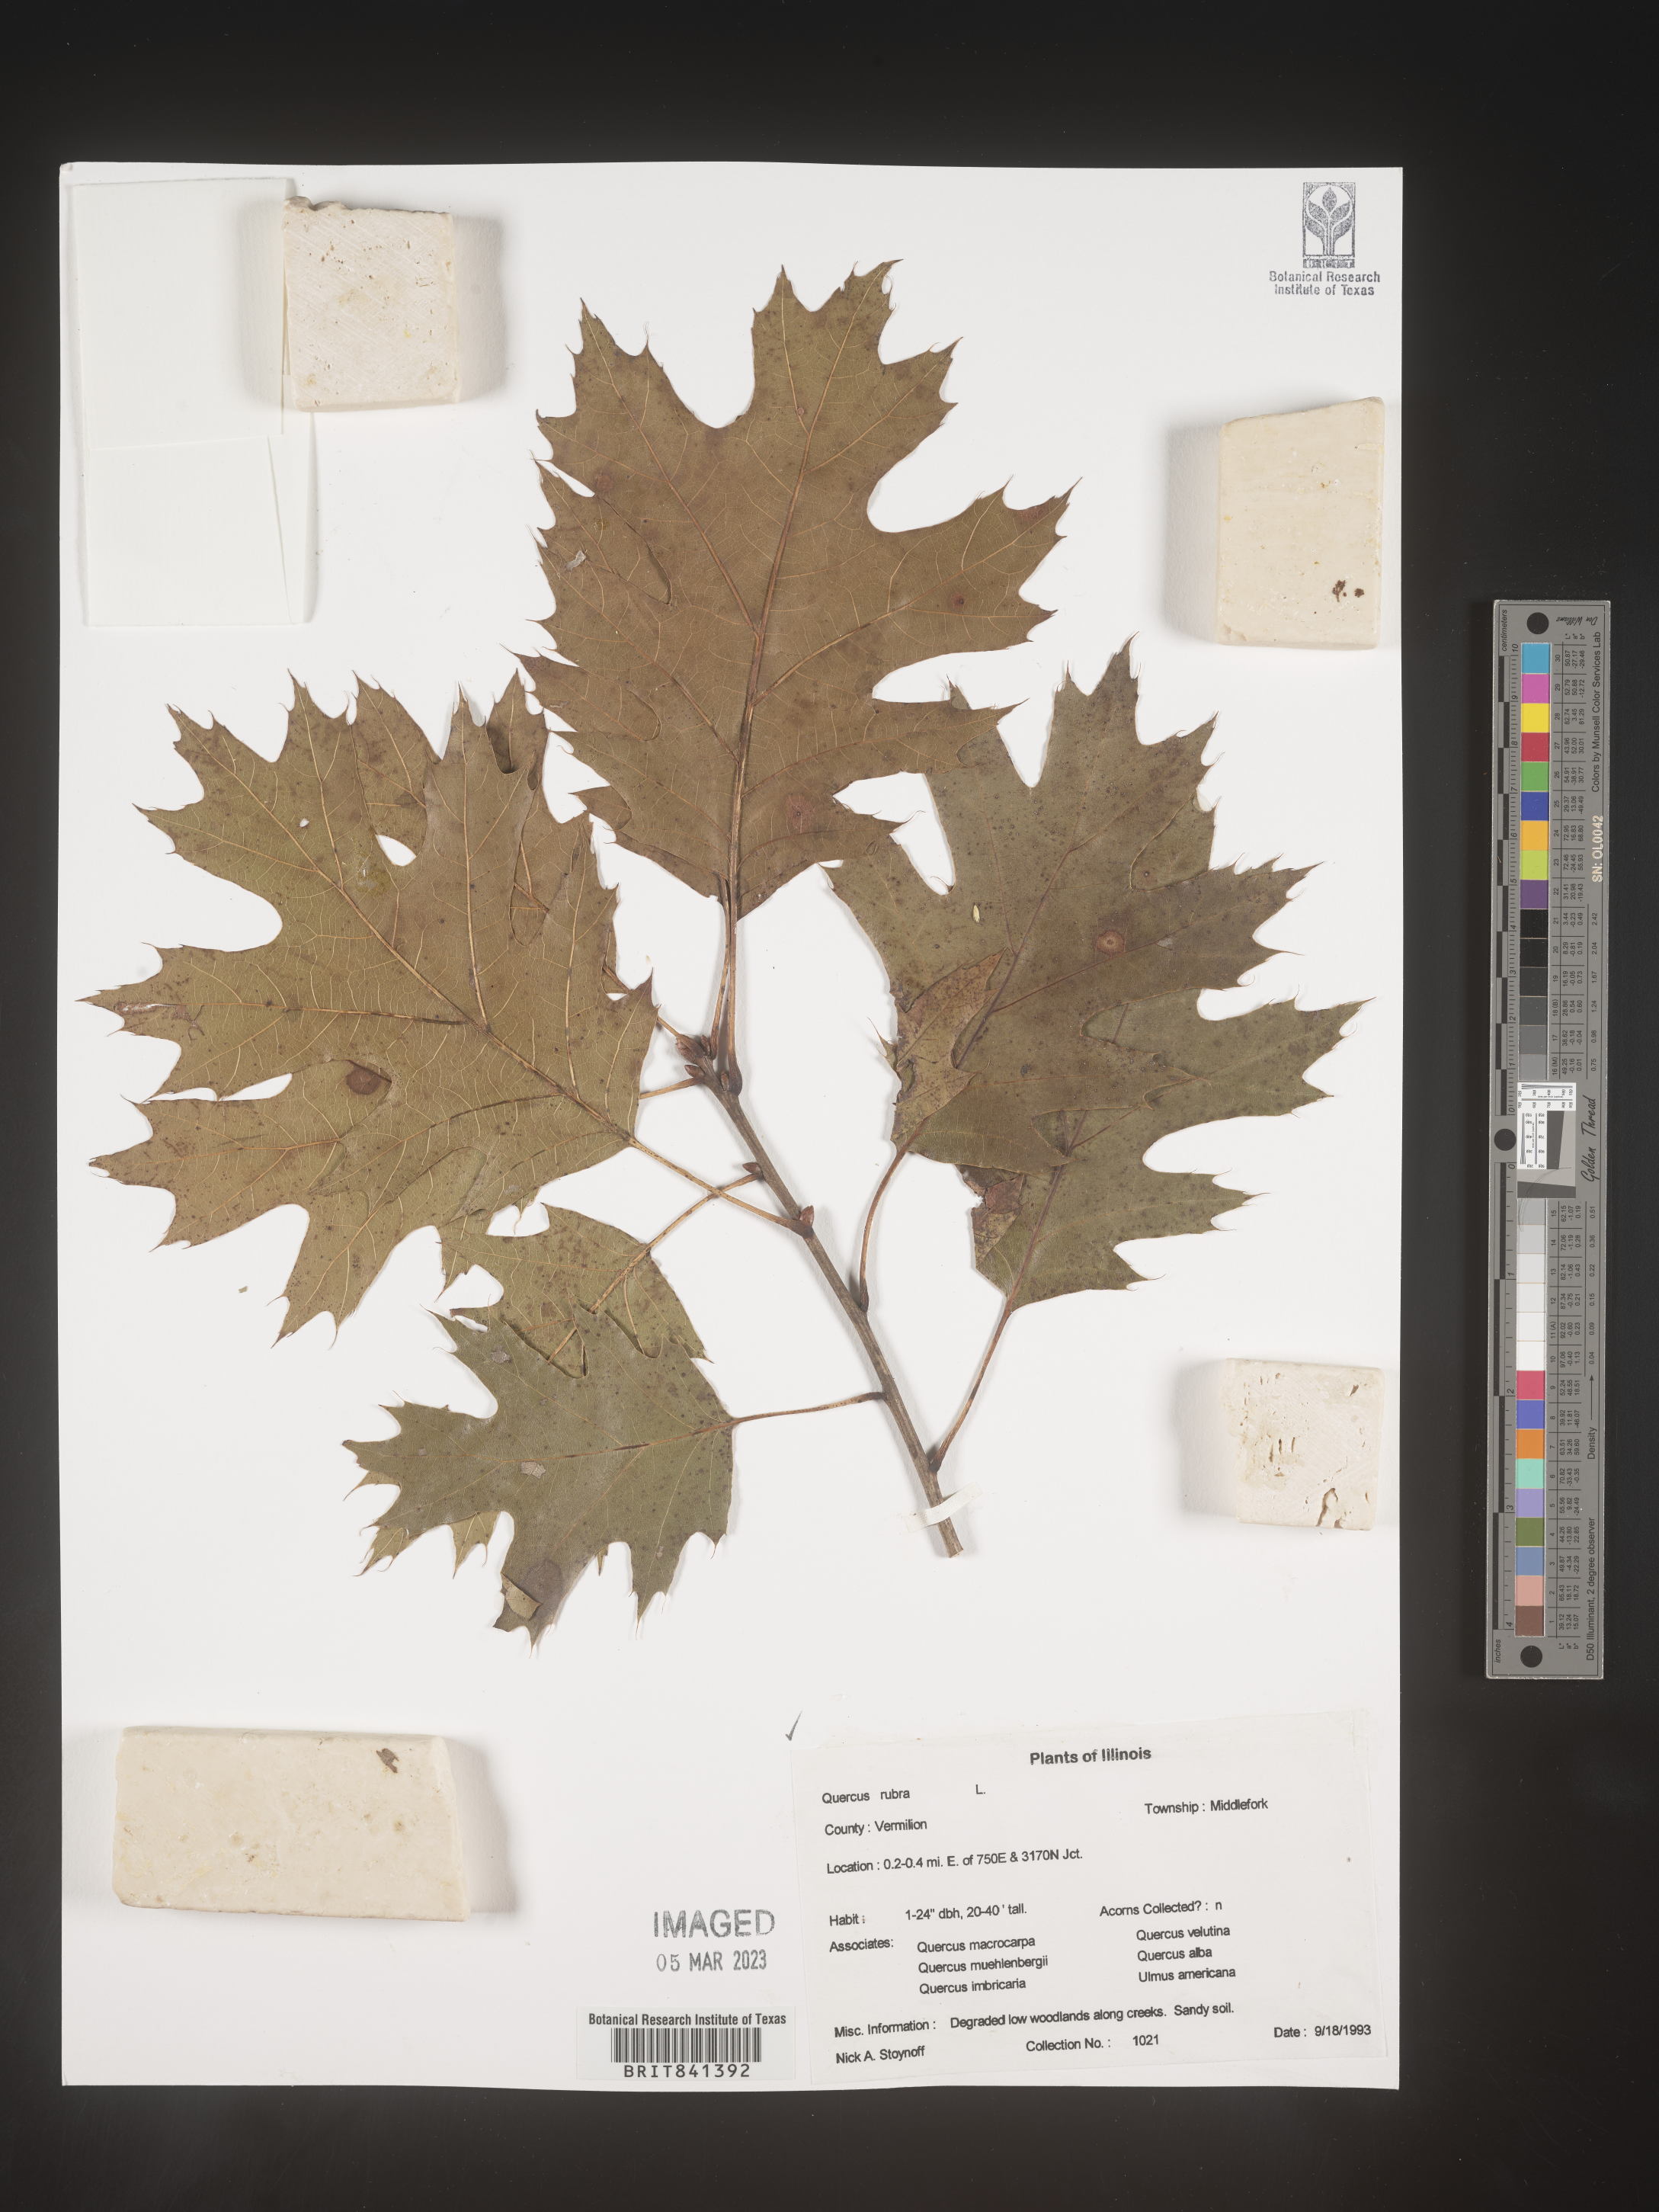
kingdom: Plantae
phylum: Tracheophyta
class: Magnoliopsida
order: Fagales
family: Fagaceae
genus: Quercus
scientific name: Quercus rubra
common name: Red oak
